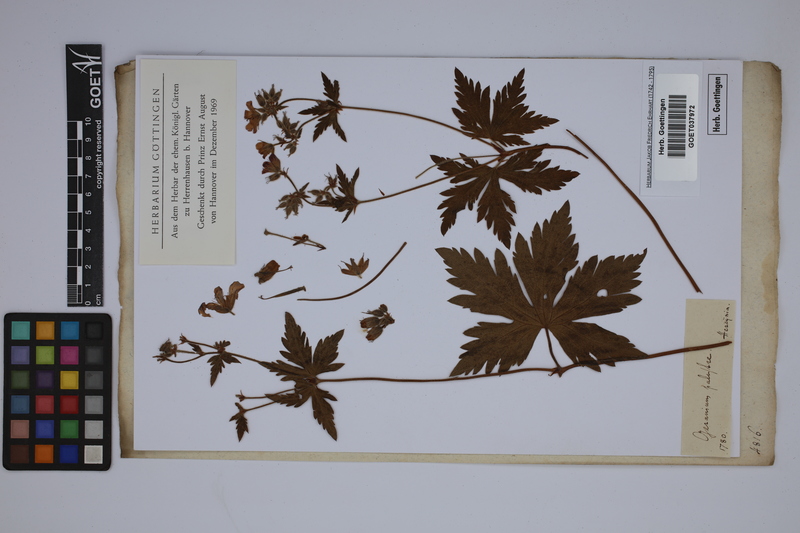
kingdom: Plantae
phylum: Tracheophyta
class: Magnoliopsida
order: Geraniales
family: Geraniaceae
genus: Geranium
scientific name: Geranium palustre
